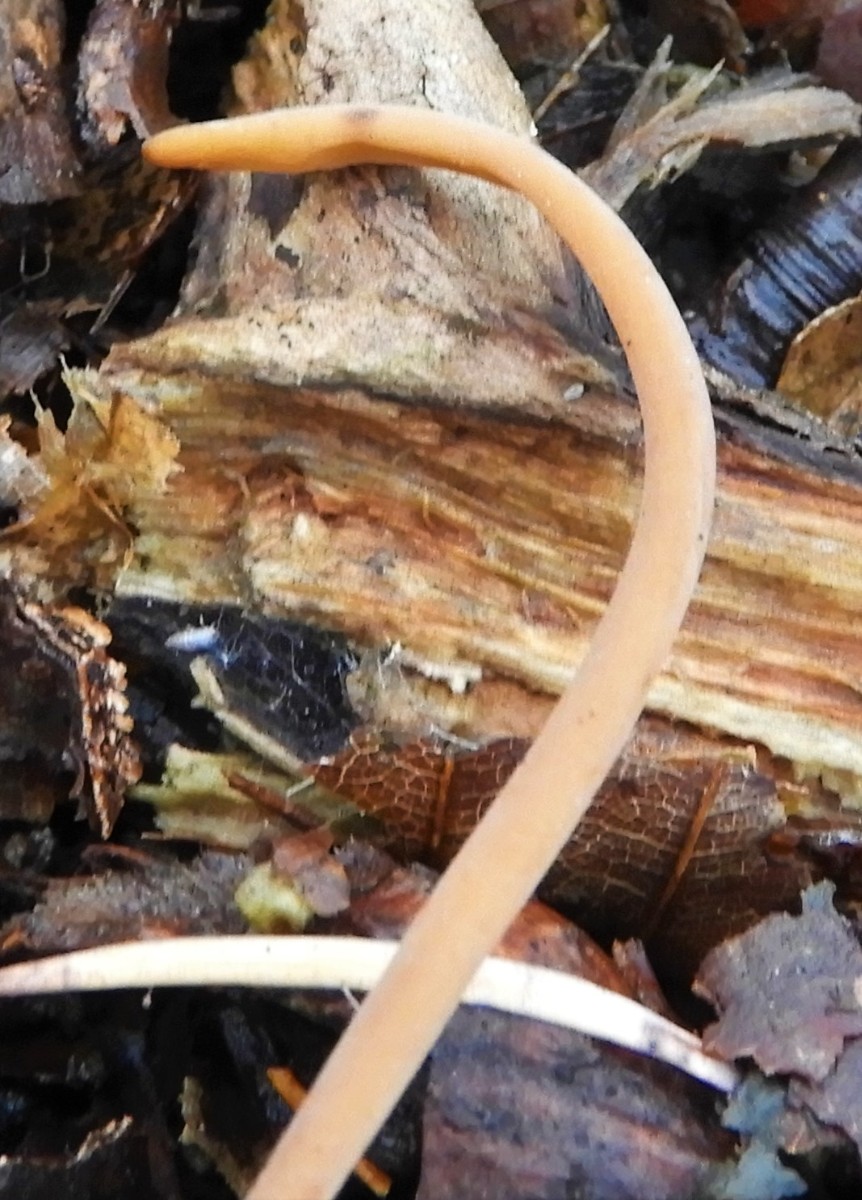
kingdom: Fungi
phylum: Basidiomycota
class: Agaricomycetes
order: Agaricales
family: Typhulaceae
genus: Typhula
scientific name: Typhula fistulosa
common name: pibet rørkølle
